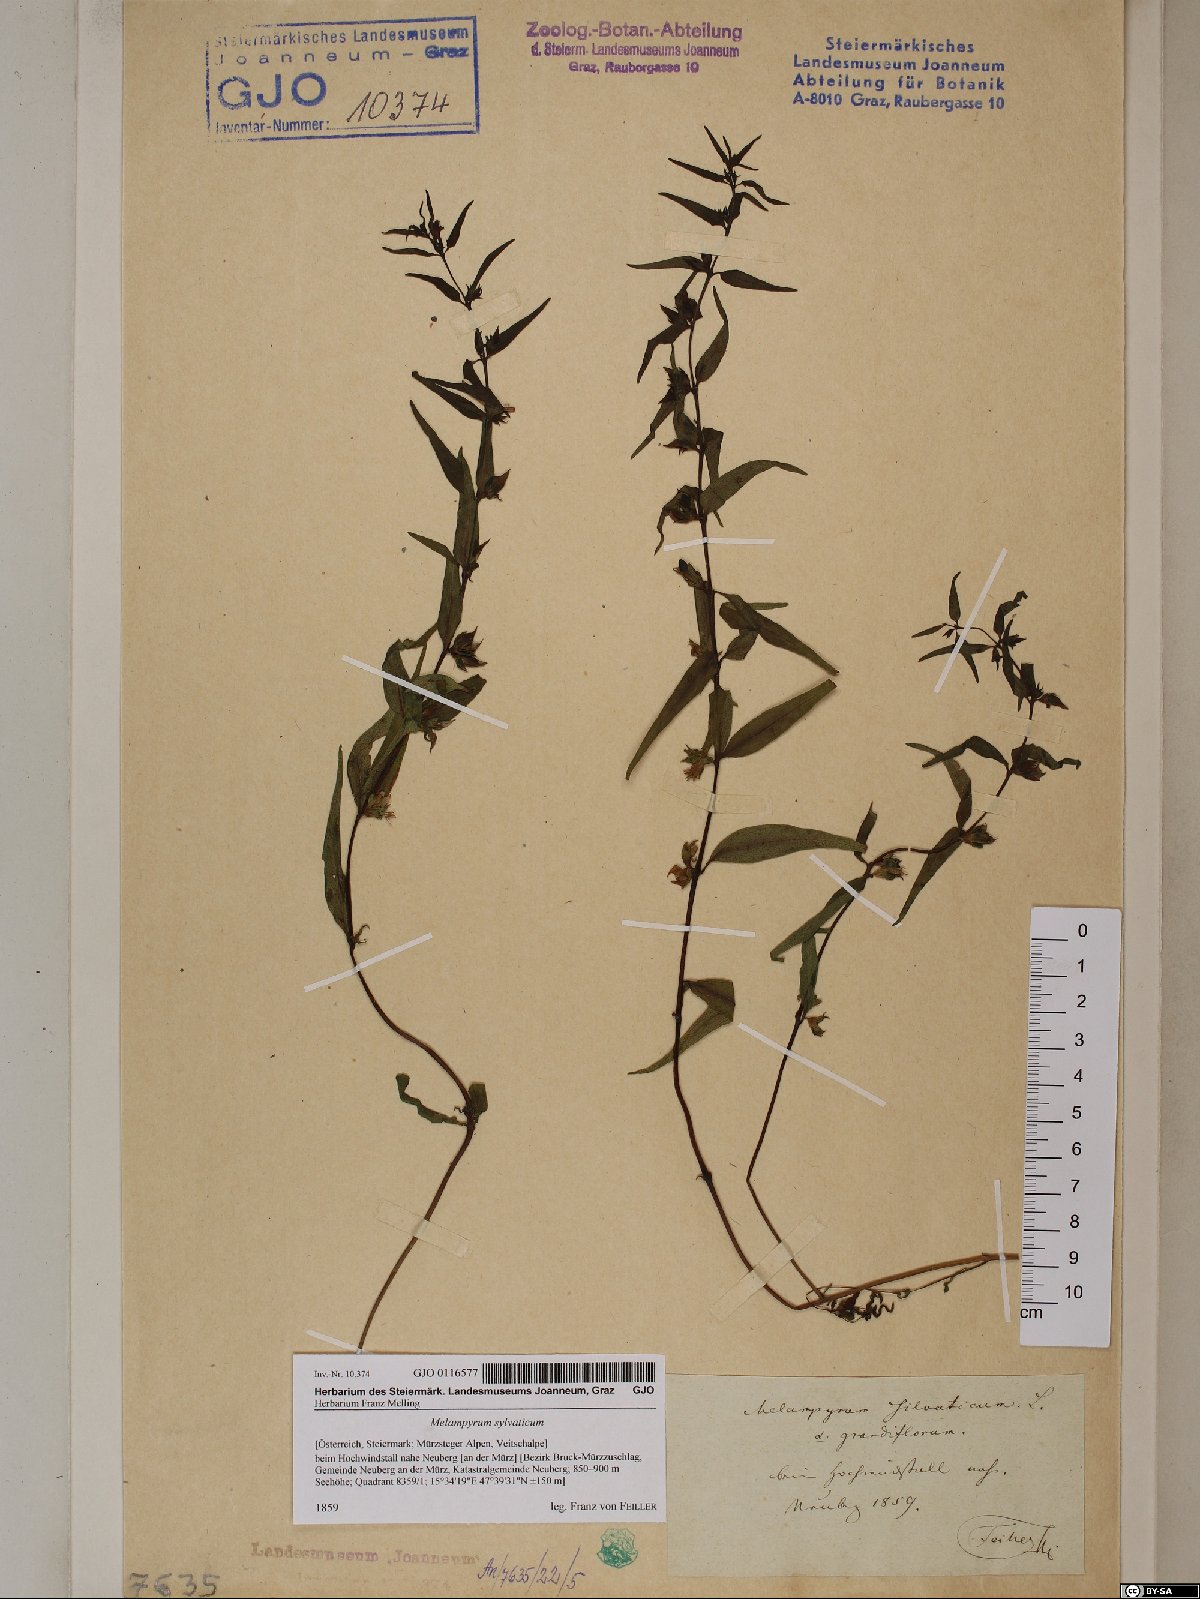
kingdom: Plantae
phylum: Tracheophyta
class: Magnoliopsida
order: Lamiales
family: Orobanchaceae
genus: Melampyrum
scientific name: Melampyrum sylvaticum
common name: Small cow-wheat
